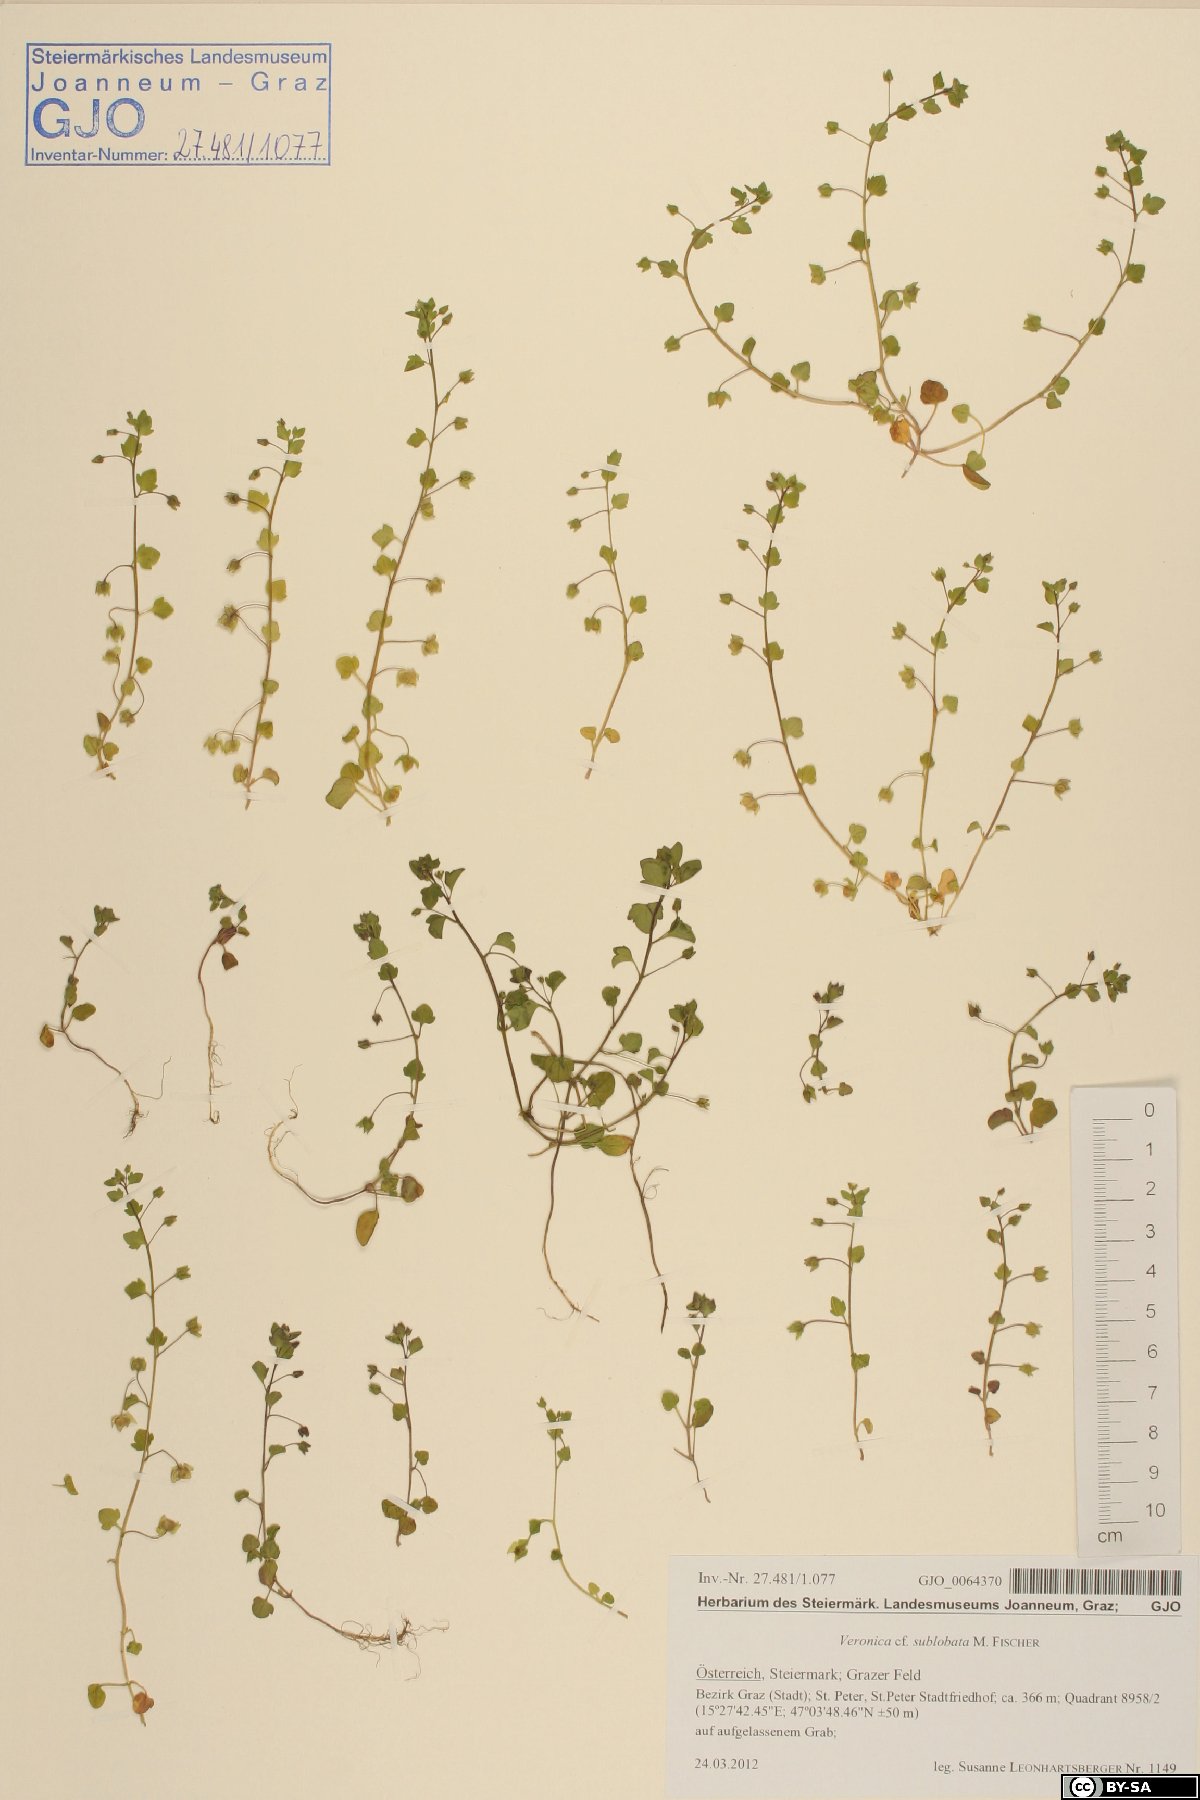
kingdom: Plantae
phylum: Tracheophyta
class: Magnoliopsida
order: Lamiales
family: Plantaginaceae
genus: Veronica
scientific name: Veronica sublobata
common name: False ivy-leaved speedwell
